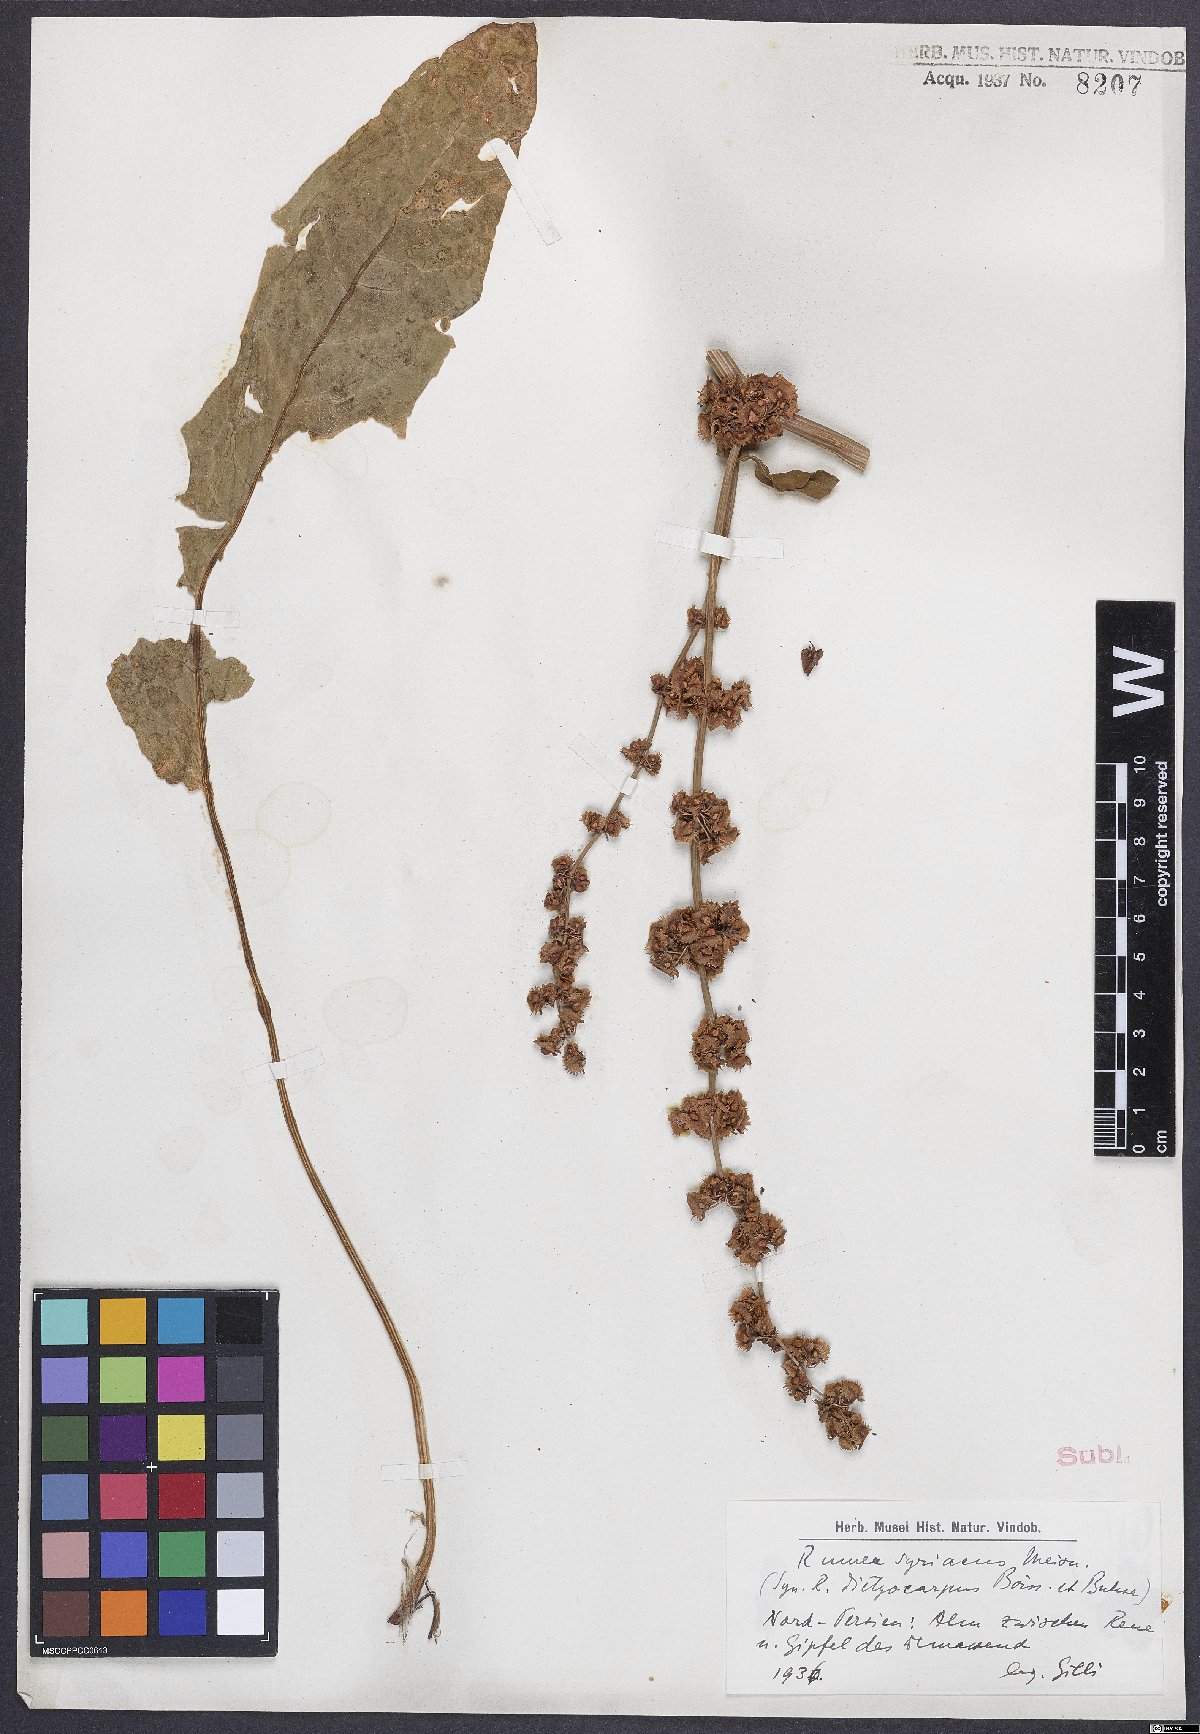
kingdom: Plantae
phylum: Tracheophyta
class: Magnoliopsida
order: Caryophyllales
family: Polygonaceae
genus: Rumex
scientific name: Rumex
